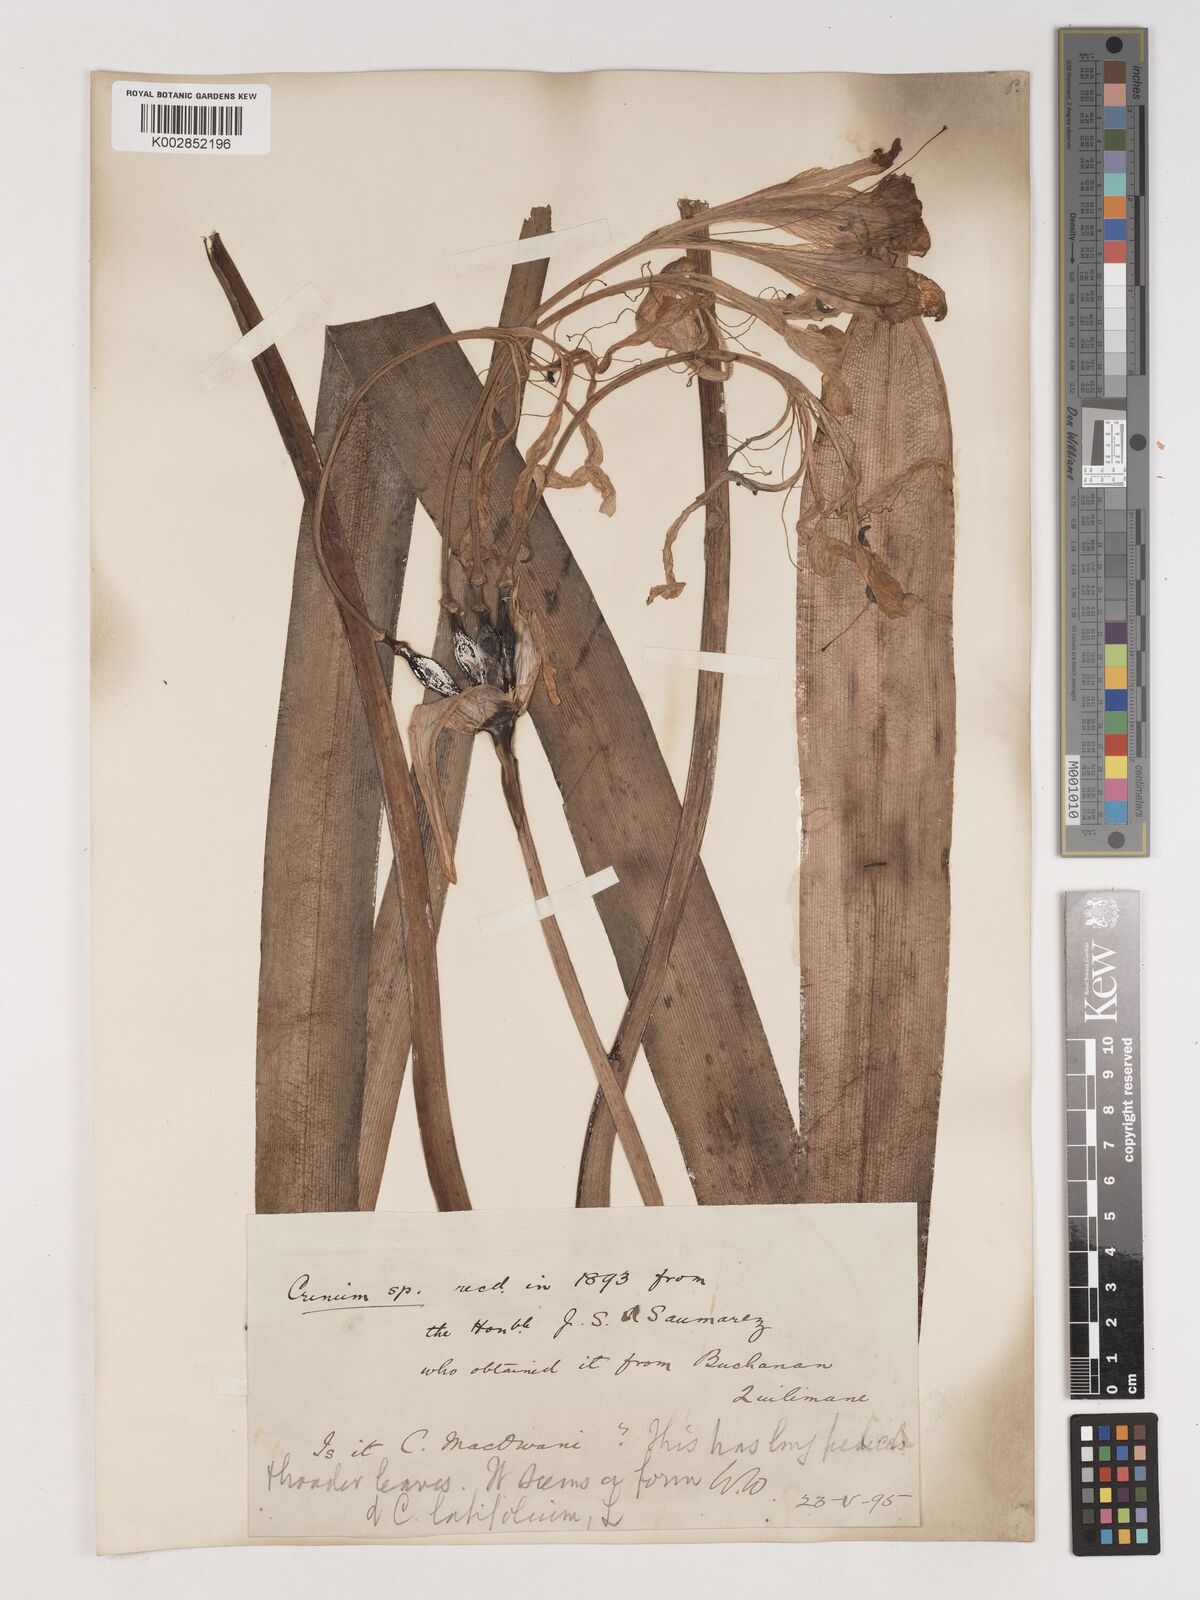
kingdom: Plantae
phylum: Tracheophyta
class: Liliopsida
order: Asparagales
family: Amaryllidaceae
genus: Crinum
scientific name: Crinum latifolium
